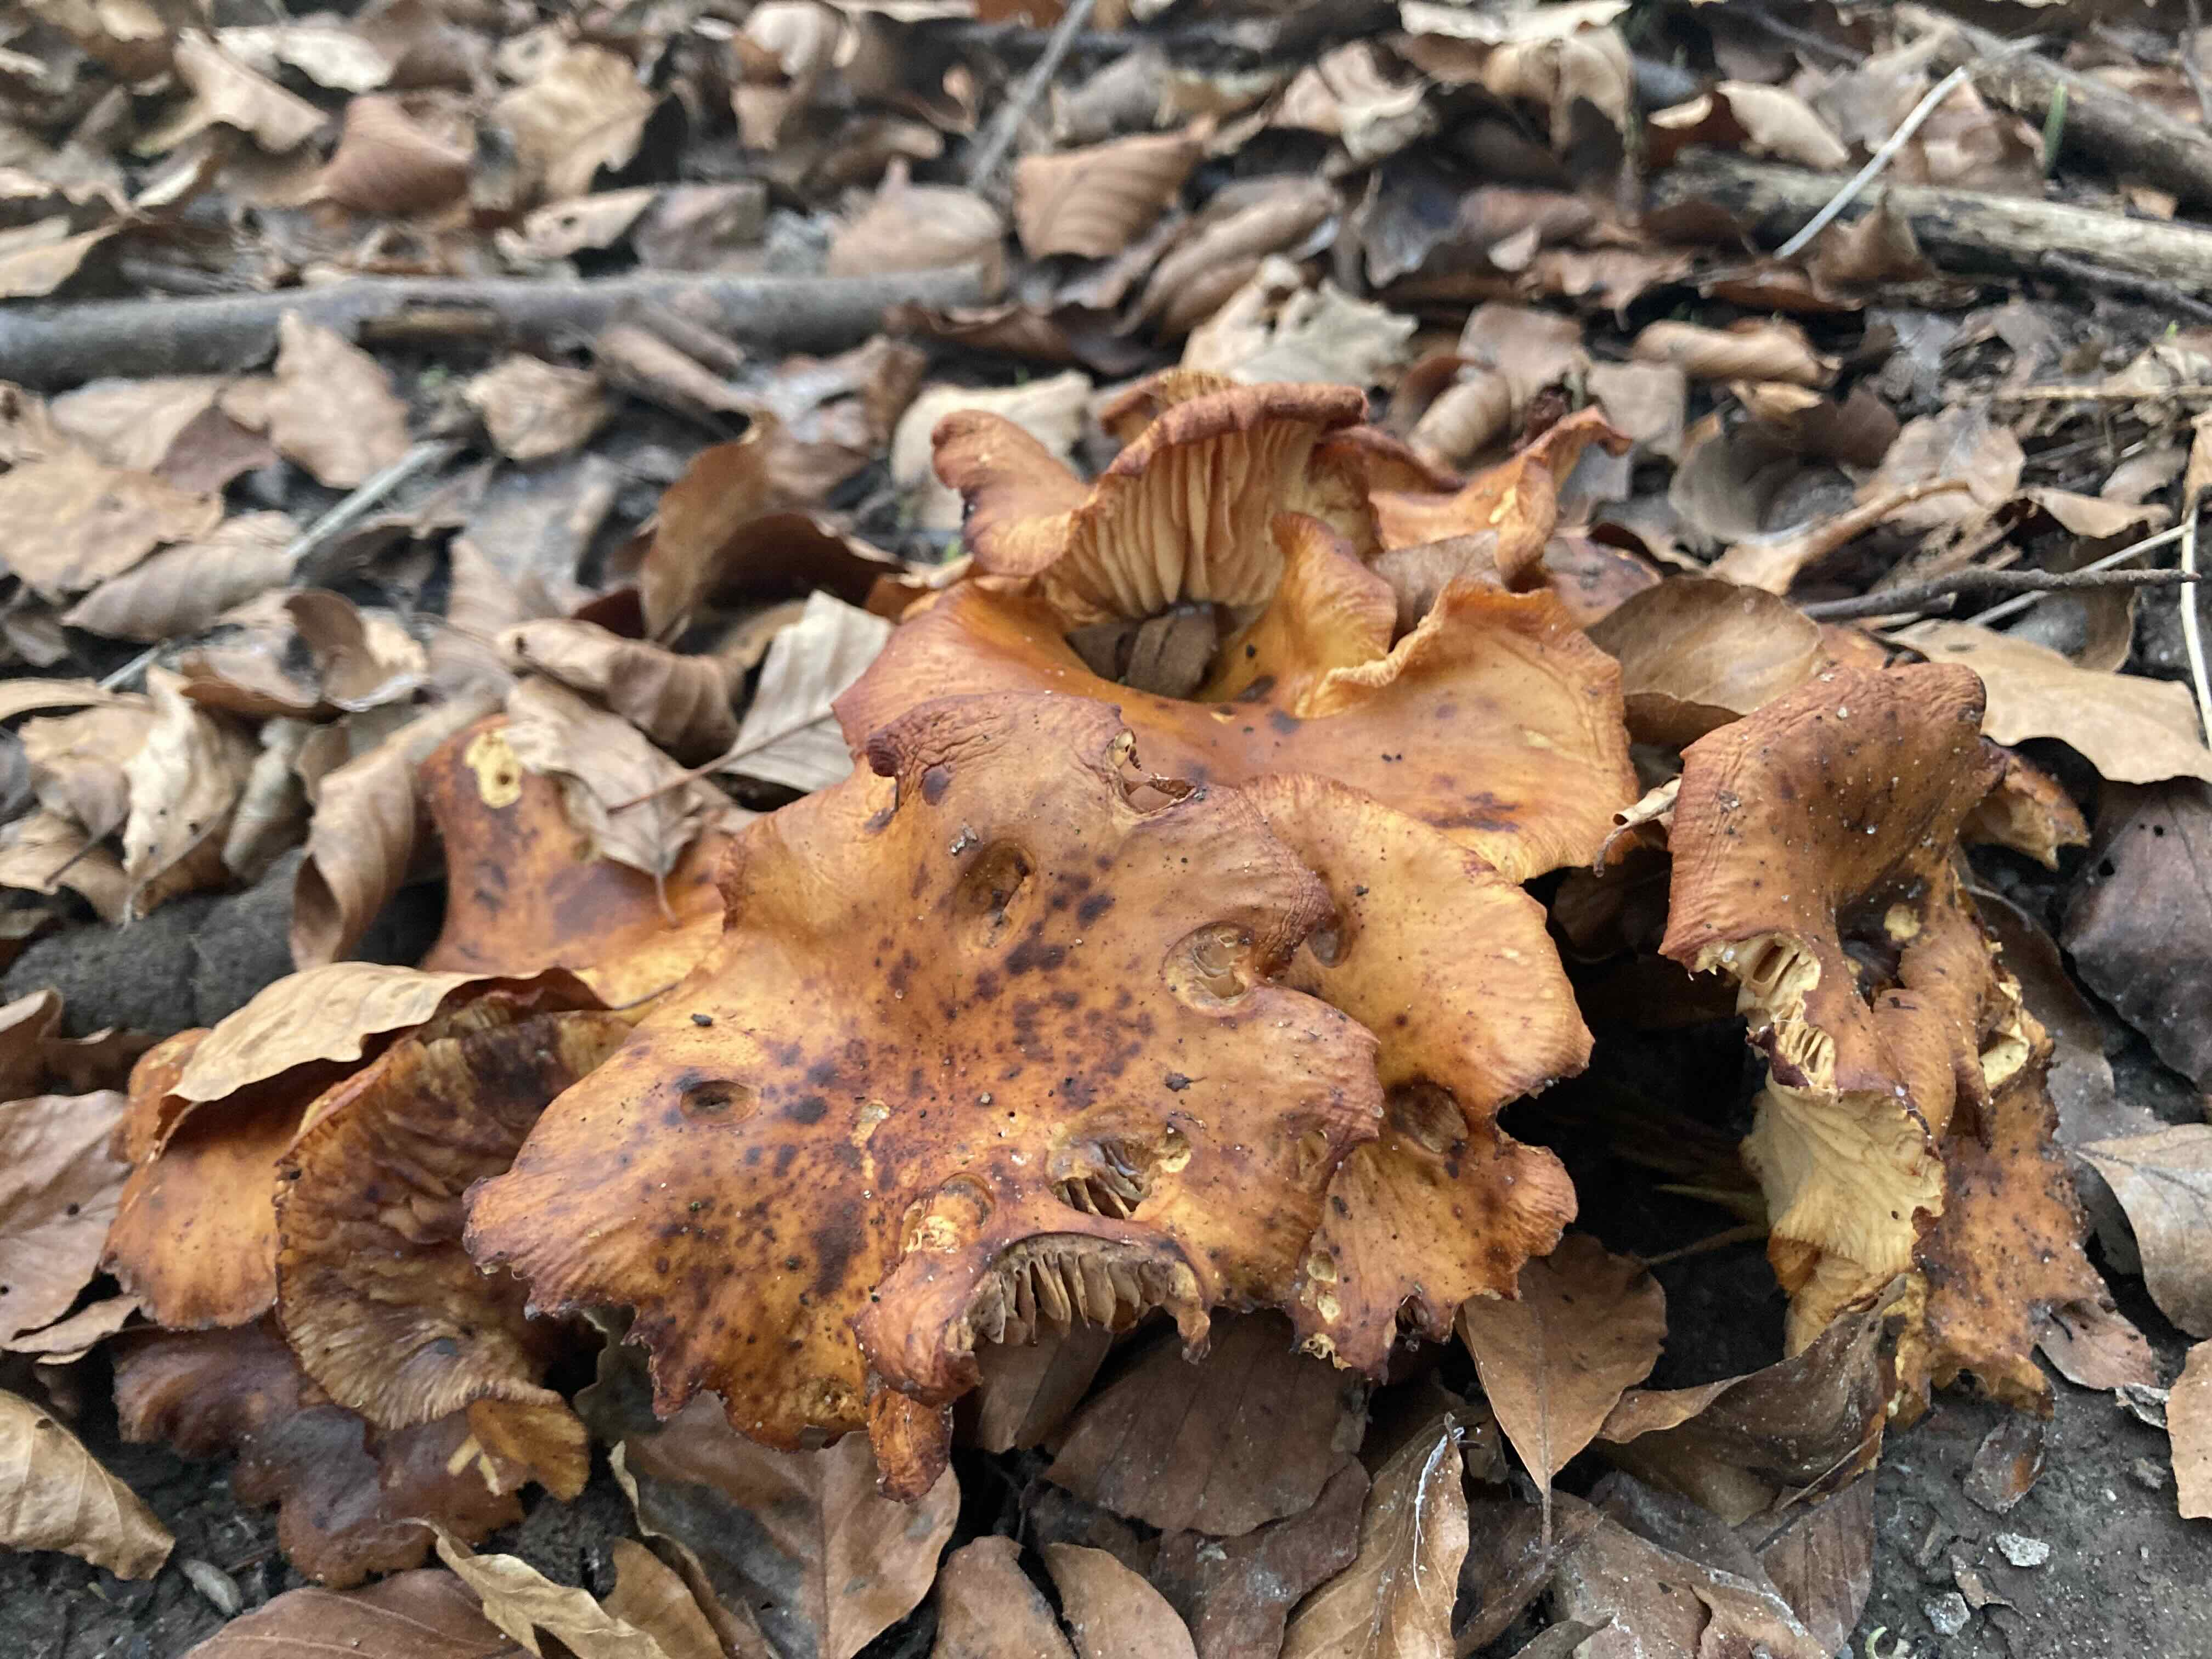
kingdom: Fungi
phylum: Basidiomycota
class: Agaricomycetes
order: Agaricales
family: Physalacriaceae
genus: Flammulina
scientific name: Flammulina velutipes
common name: gul fløjlsfod
